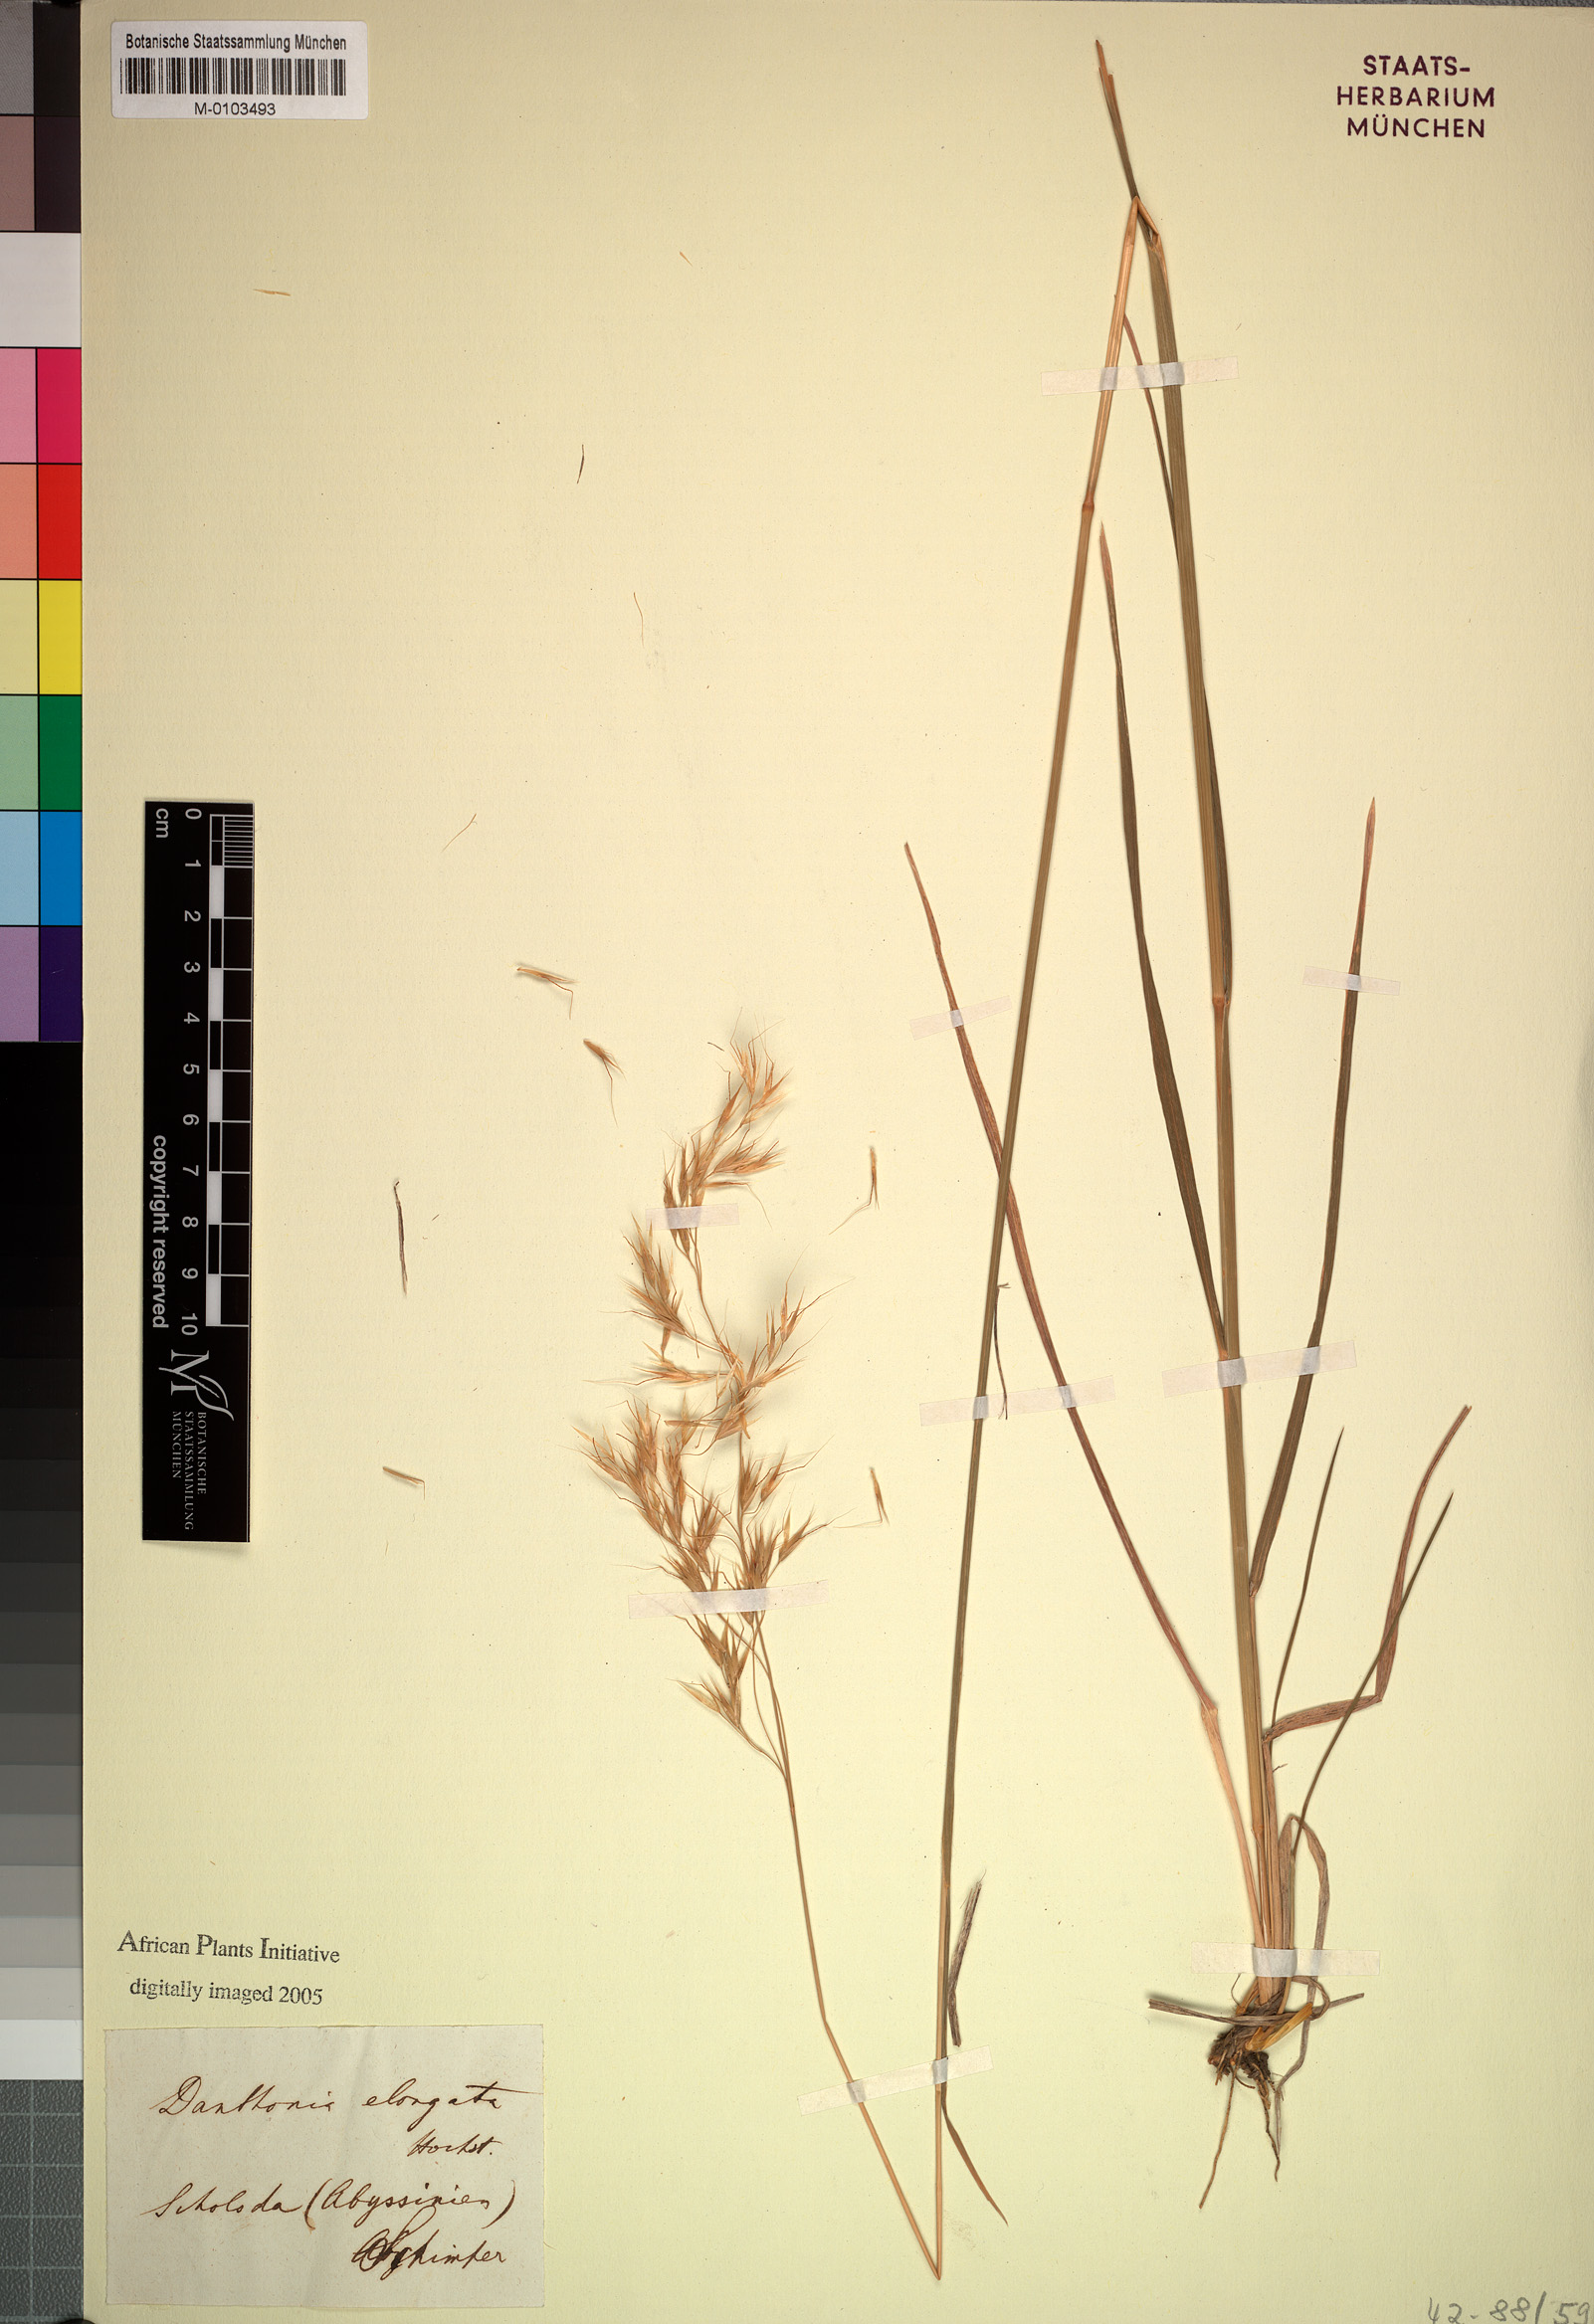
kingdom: Plantae
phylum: Tracheophyta
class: Liliopsida
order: Poales
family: Poaceae
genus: Trisetopsis
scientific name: Trisetopsis elongata
